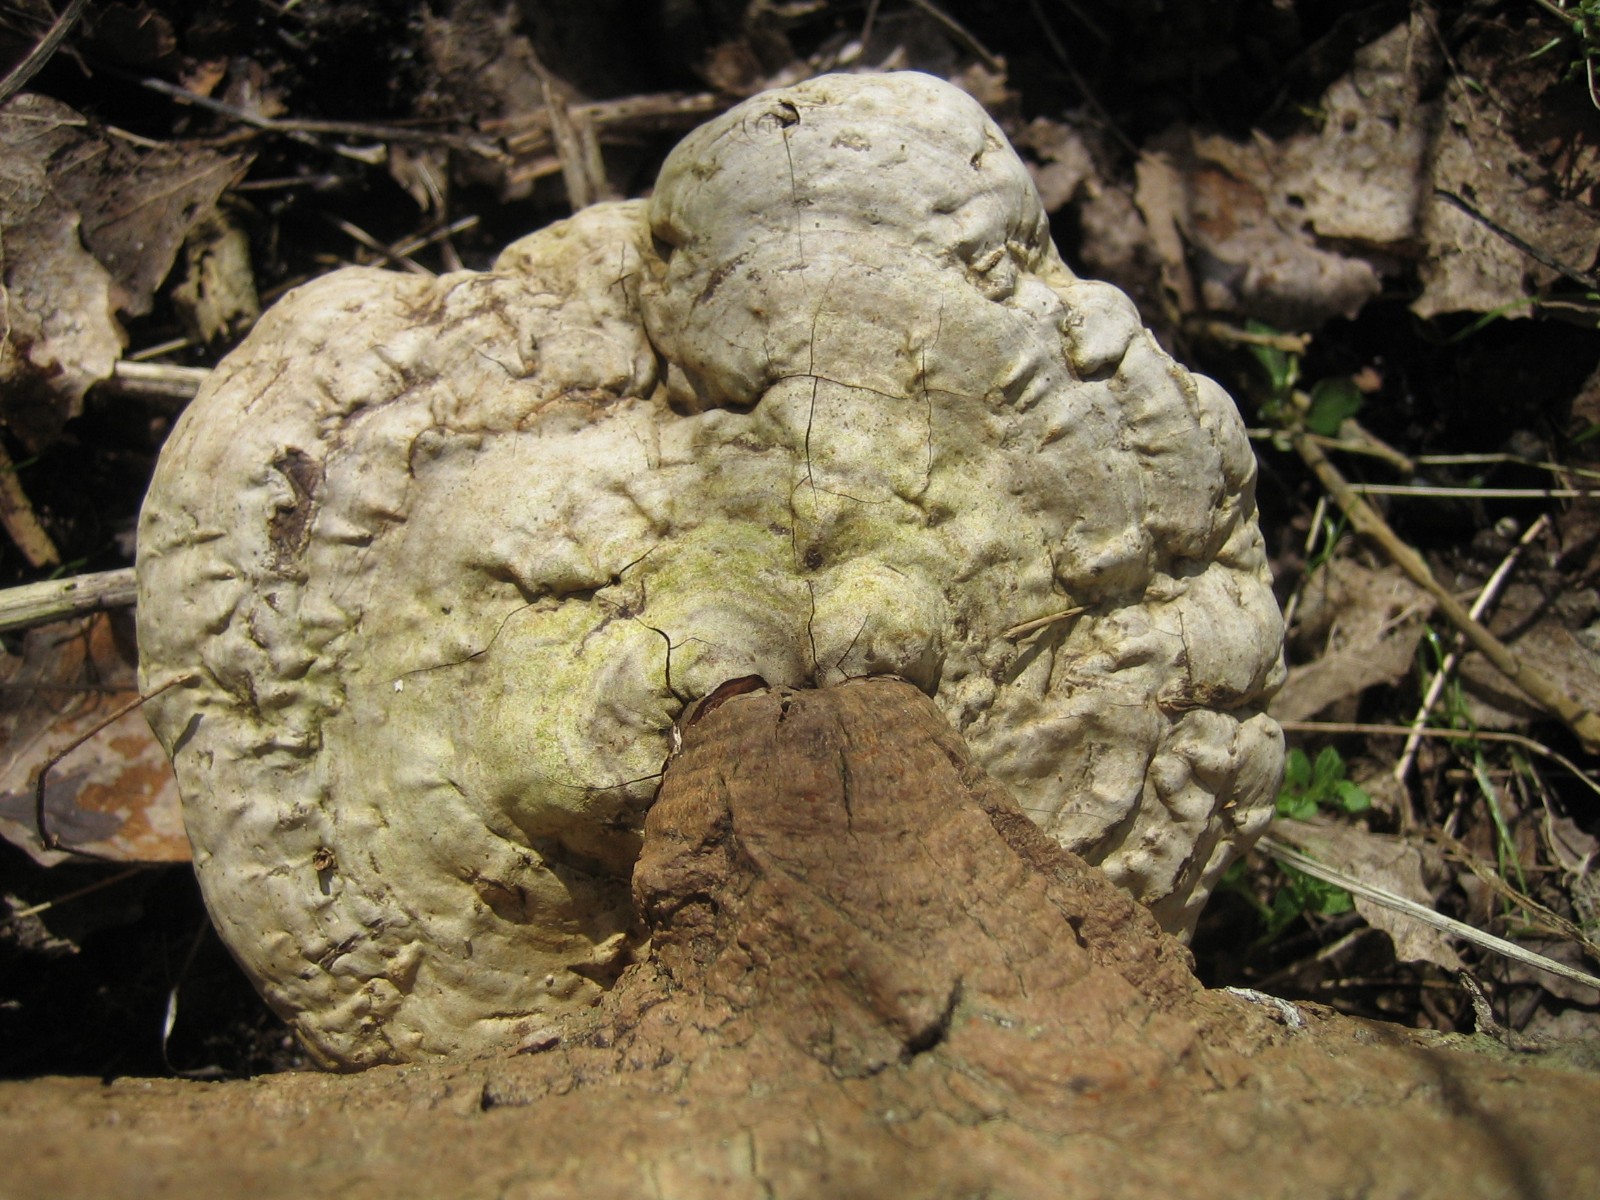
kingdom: Fungi
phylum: Basidiomycota
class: Agaricomycetes
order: Polyporales
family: Polyporaceae
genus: Ganoderma
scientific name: Ganoderma applanatum
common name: flad lakporesvamp
